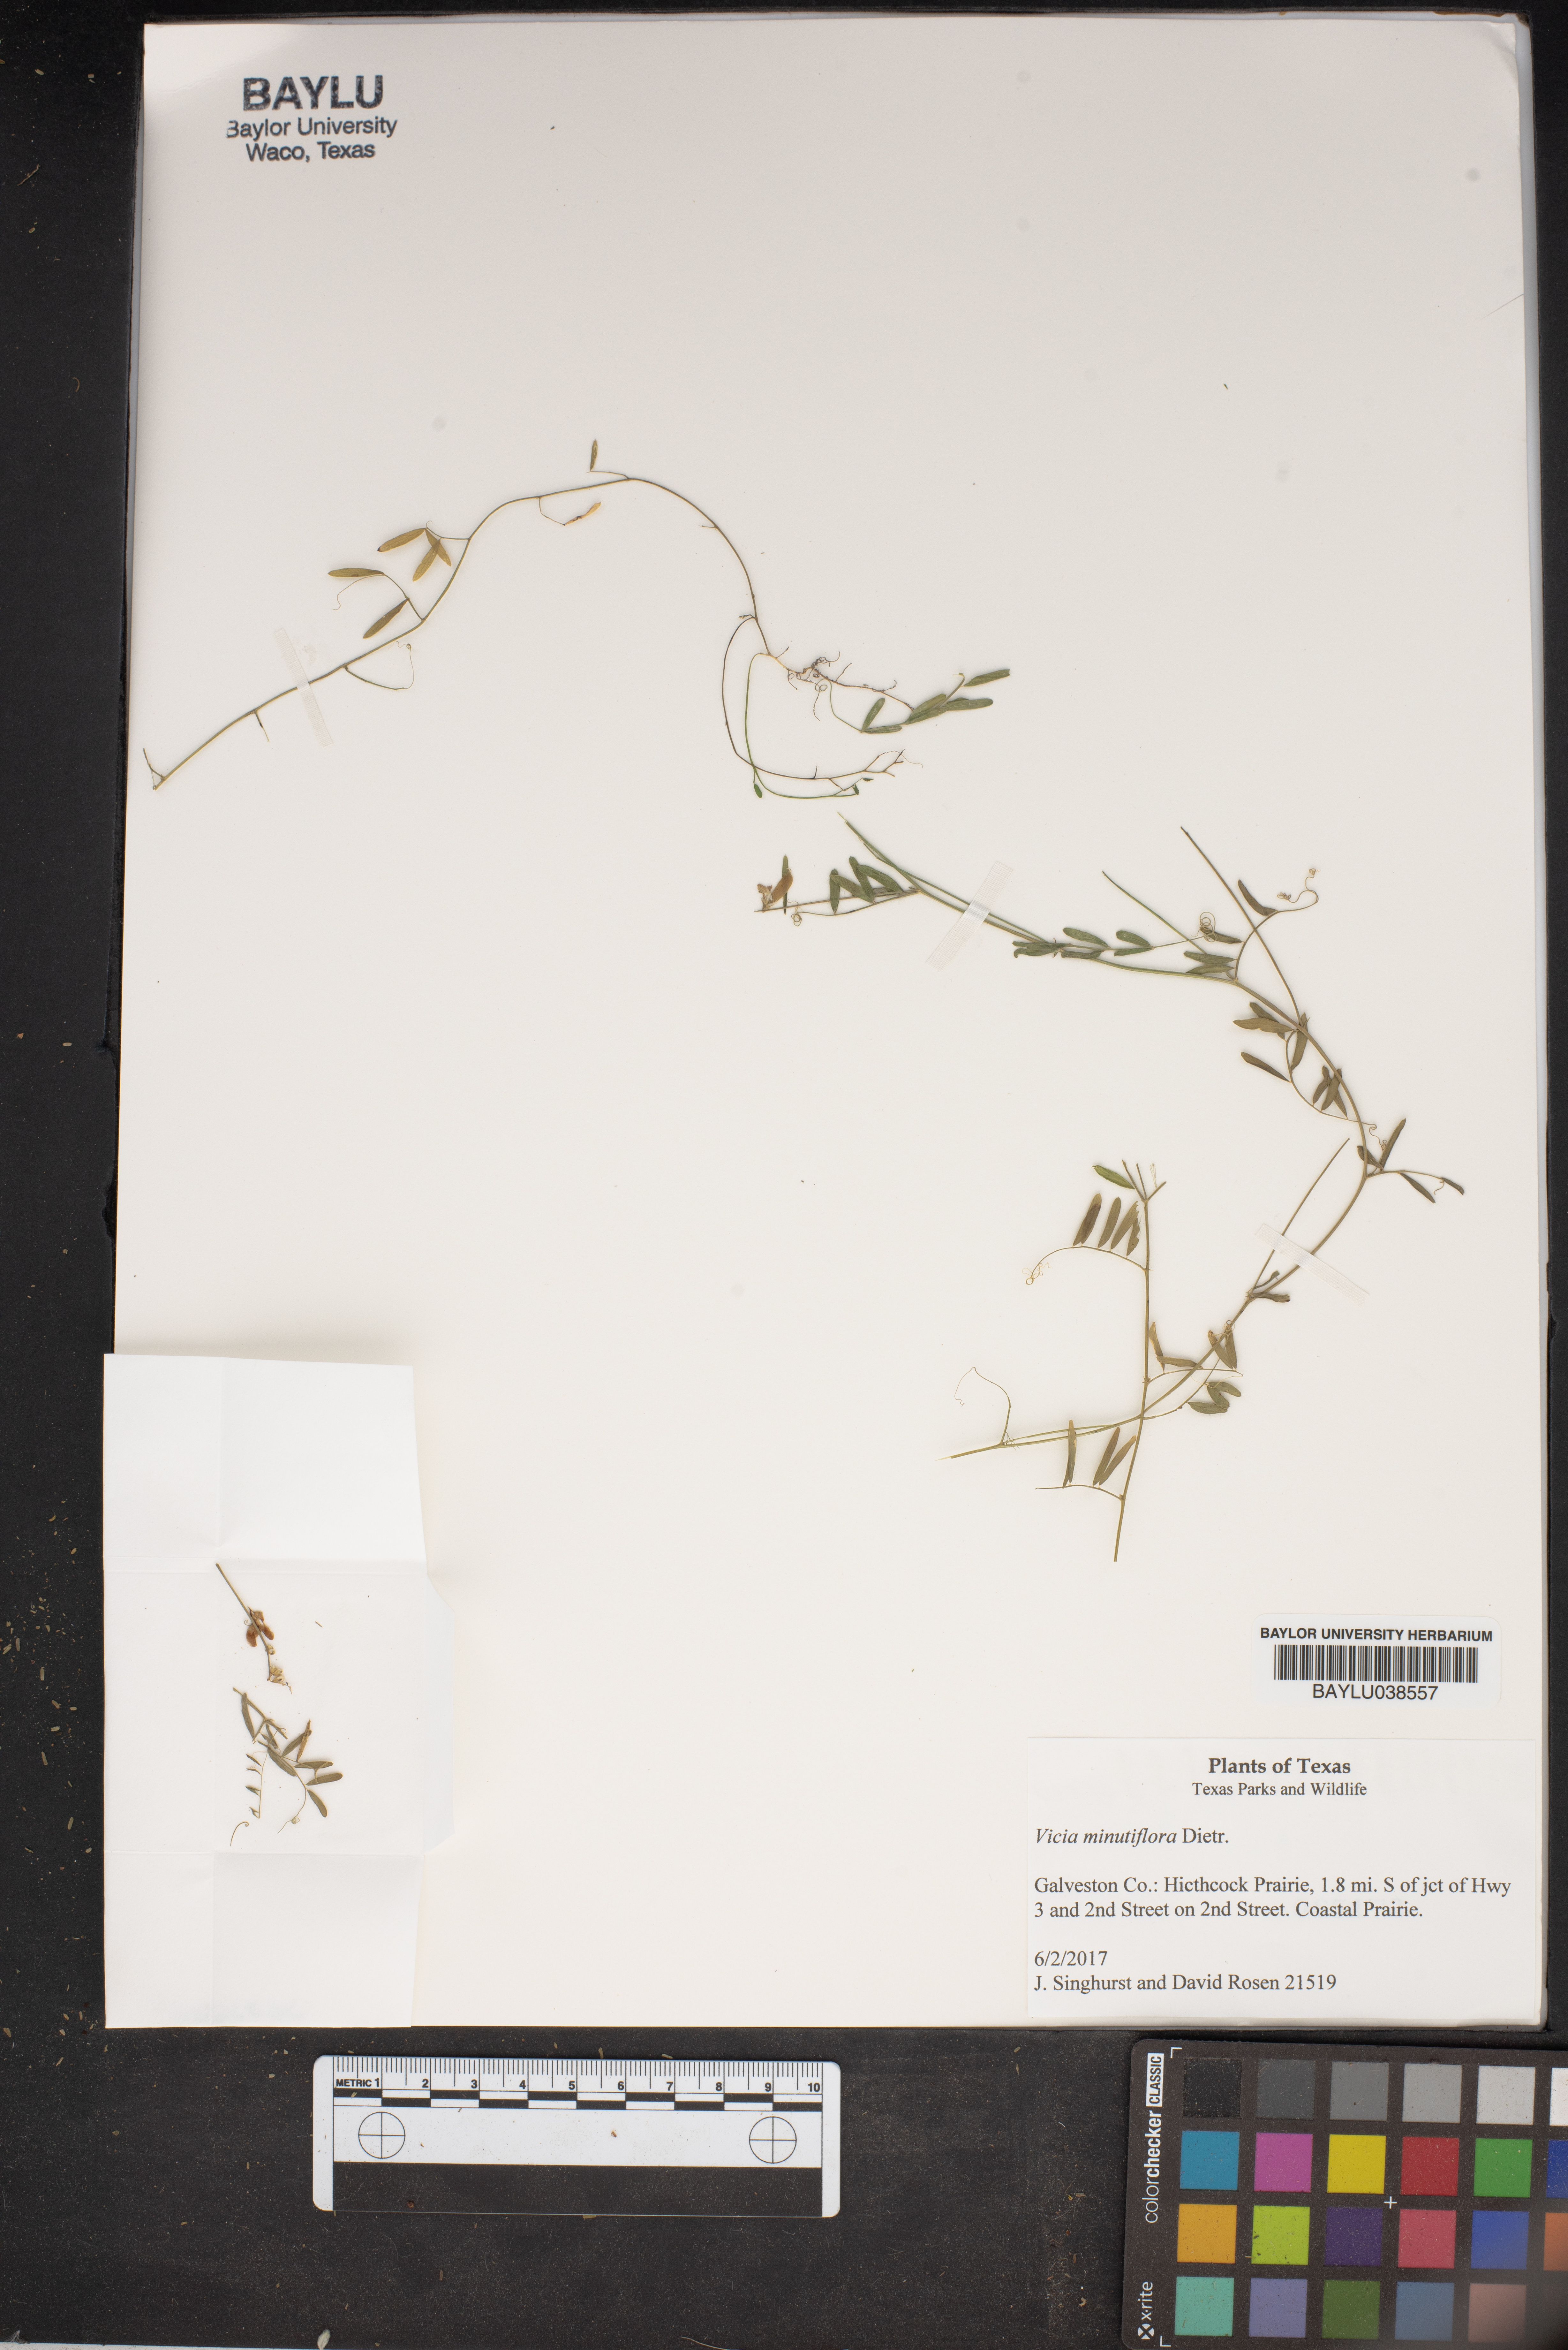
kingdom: Plantae
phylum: Tracheophyta
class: Magnoliopsida
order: Fabales
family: Fabaceae
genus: Vicia
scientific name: Vicia minutiflora
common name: Pygmy-flower vetch
